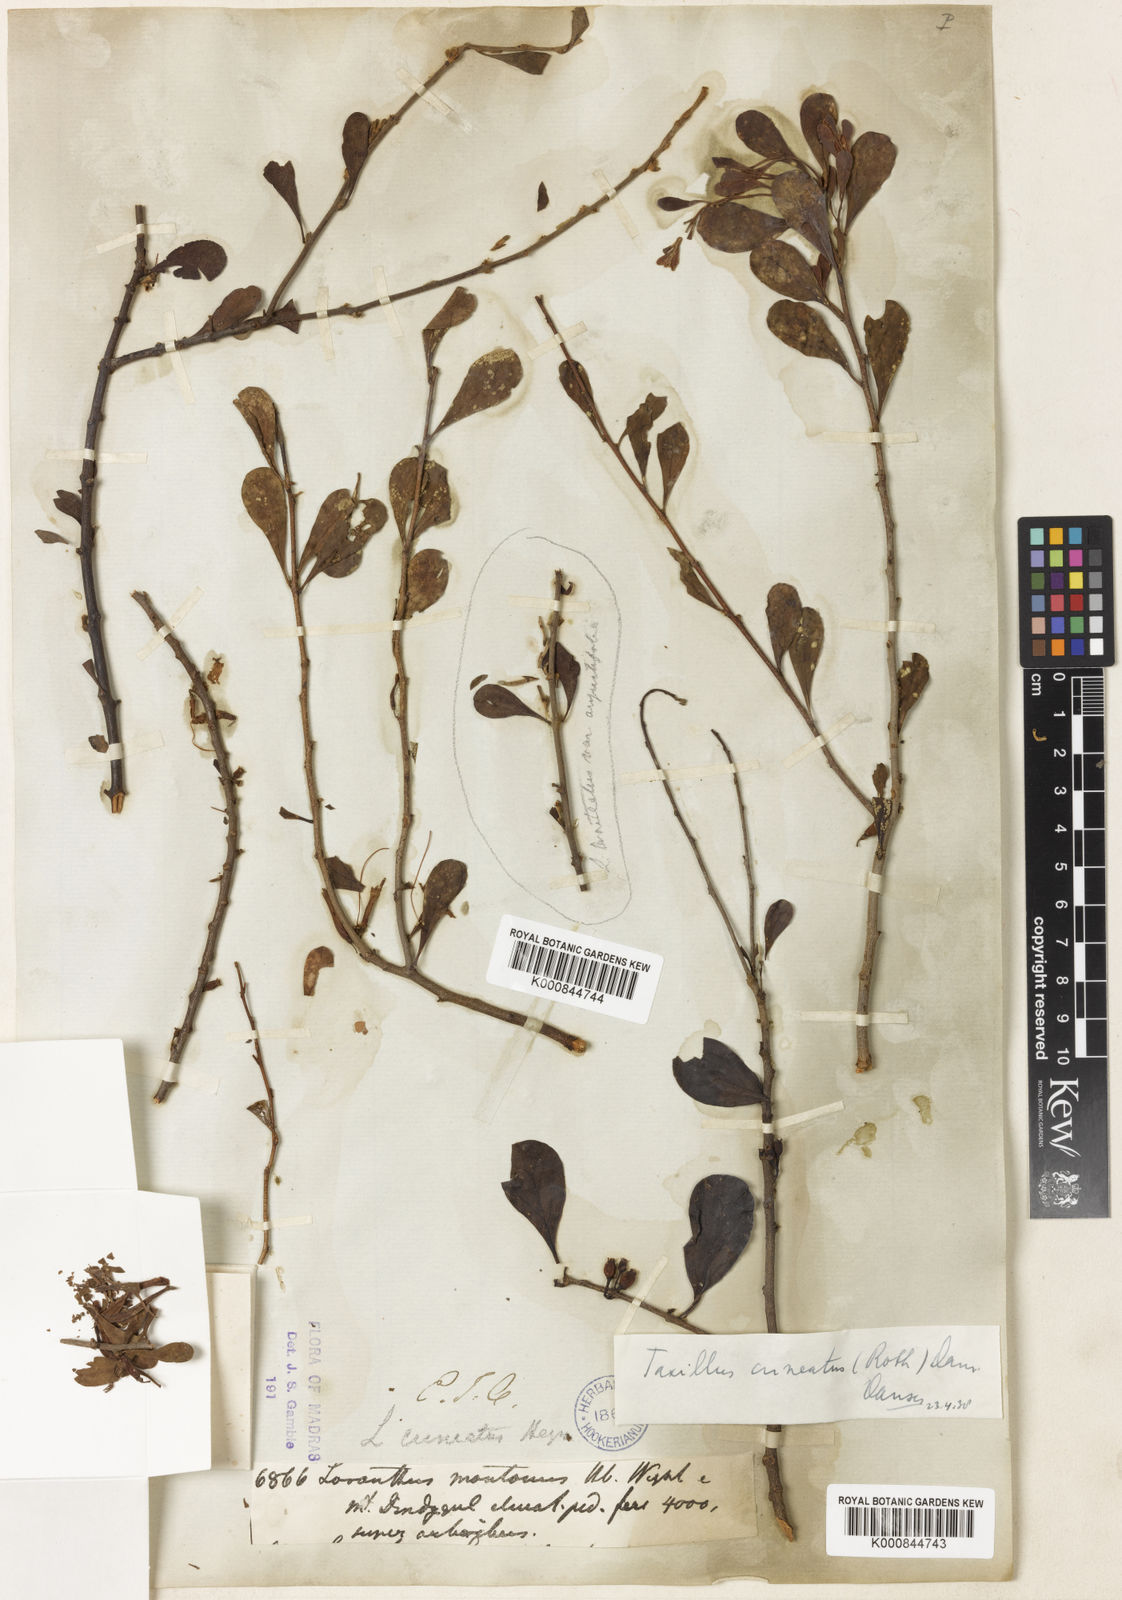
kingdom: Plantae
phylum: Tracheophyta
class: Magnoliopsida
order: Santalales
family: Loranthaceae
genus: Taxillus
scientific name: Taxillus cuneatus
